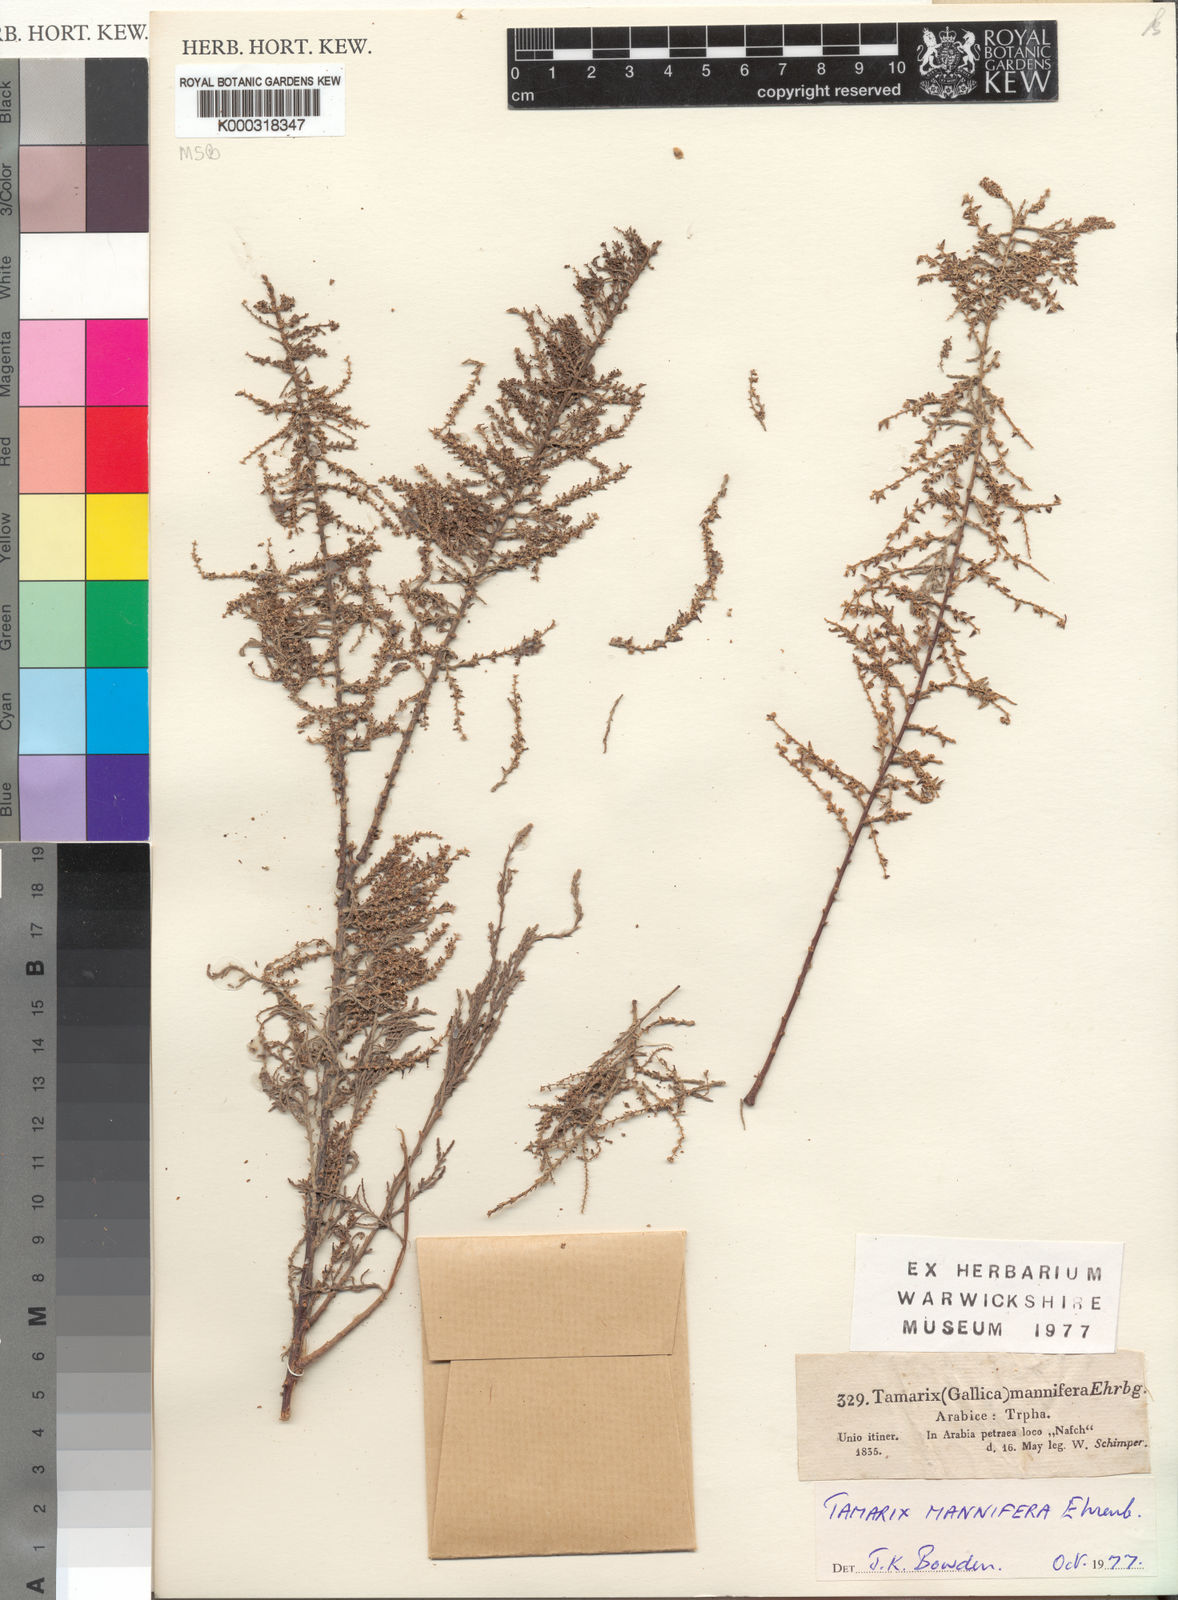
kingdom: Plantae
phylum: Tracheophyta
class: Magnoliopsida
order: Caryophyllales
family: Tamaricaceae
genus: Tamarix
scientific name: Tamarix senegalensis
